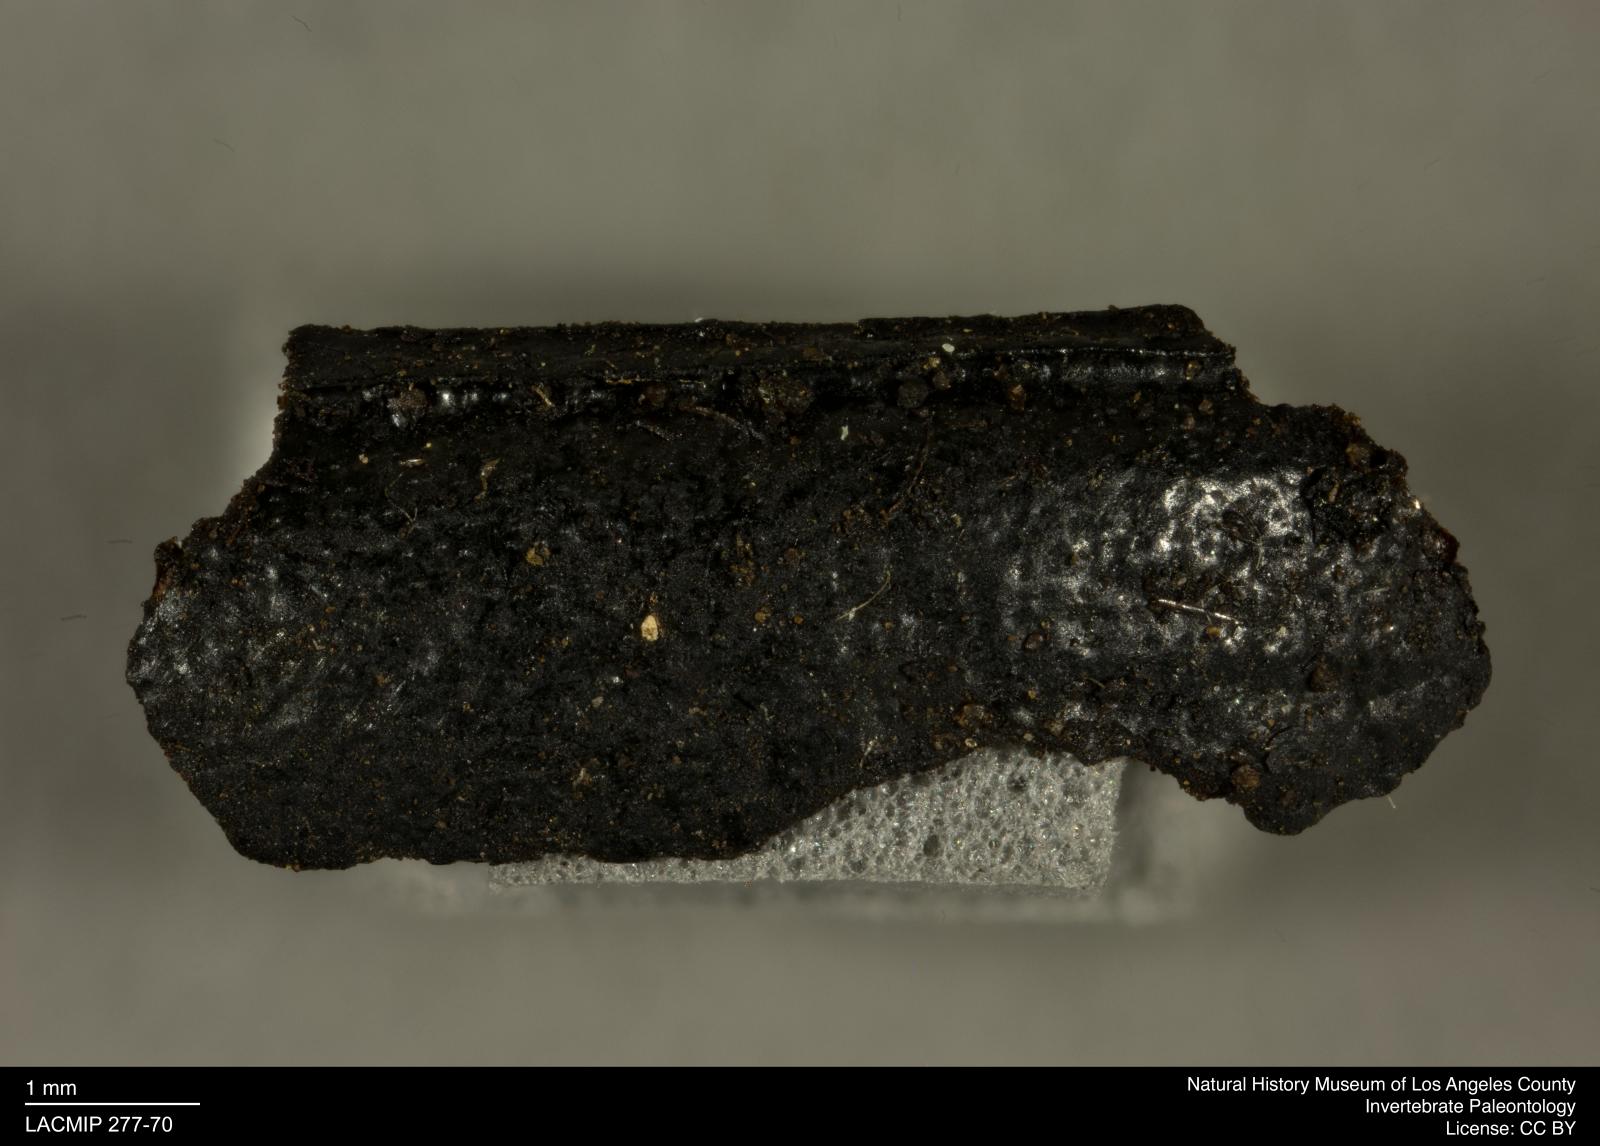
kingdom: Animalia
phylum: Arthropoda
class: Insecta
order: Coleoptera
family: Tenebrionidae
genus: Coniontis
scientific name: Coniontis abdominalis
